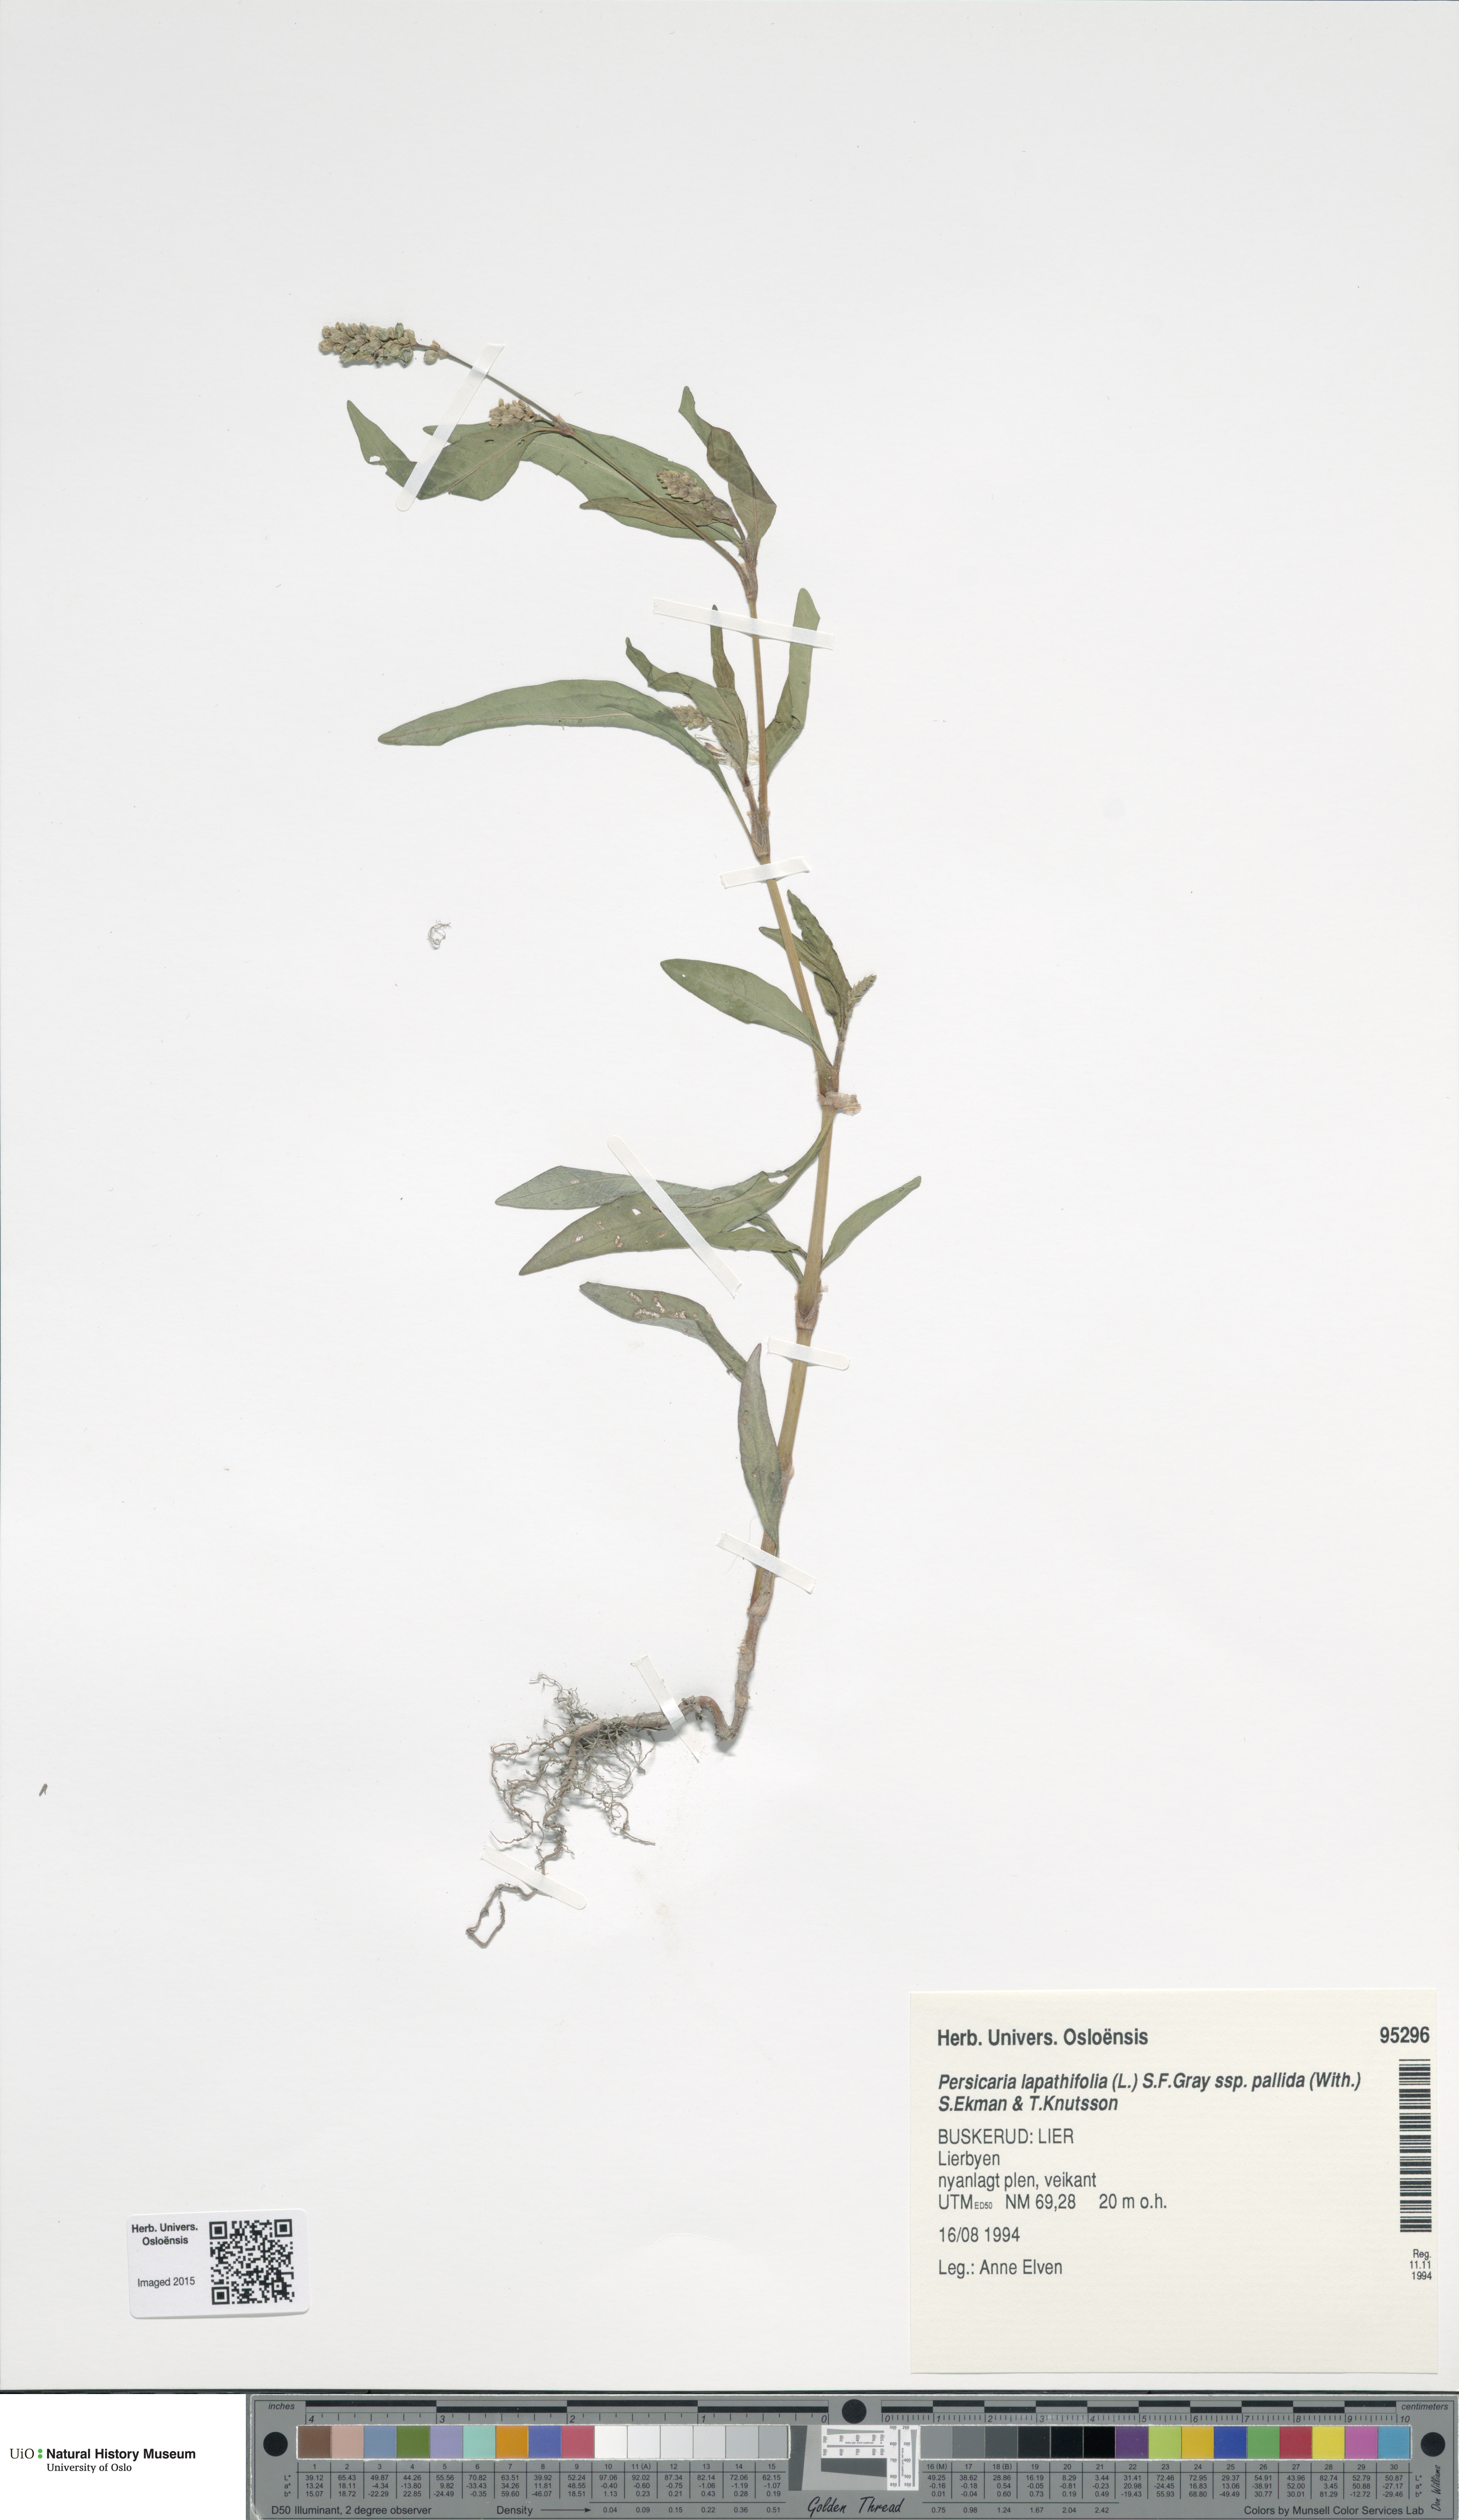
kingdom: Plantae
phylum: Tracheophyta
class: Magnoliopsida
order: Caryophyllales
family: Polygonaceae
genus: Persicaria
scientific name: Persicaria lapathifolia
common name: Curlytop knotweed
